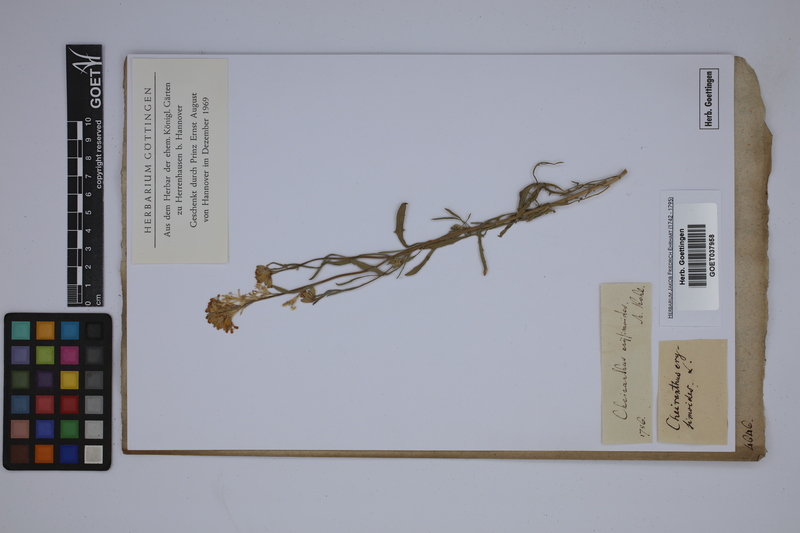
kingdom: Plantae
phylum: Tracheophyta
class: Magnoliopsida
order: Brassicales
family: Brassicaceae
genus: Erysimum
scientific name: Erysimum odoratum
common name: Smelly wallflower
